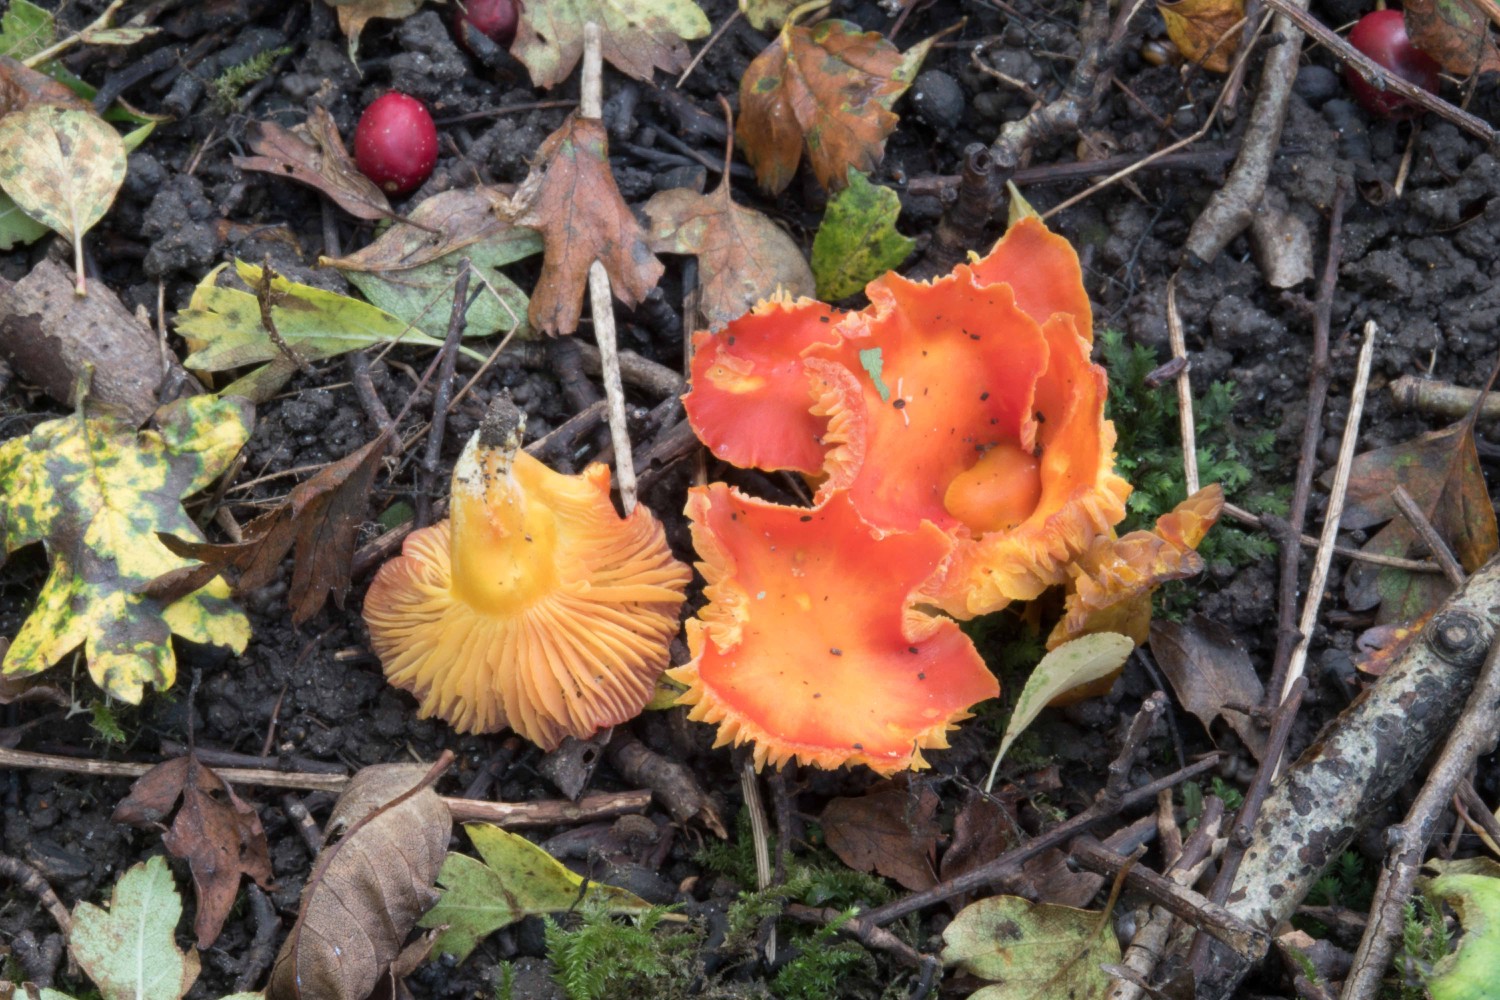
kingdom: Fungi
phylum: Basidiomycota
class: Agaricomycetes
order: Agaricales
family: Hygrophoraceae
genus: Hygrocybe
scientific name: Hygrocybe
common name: vokshat
